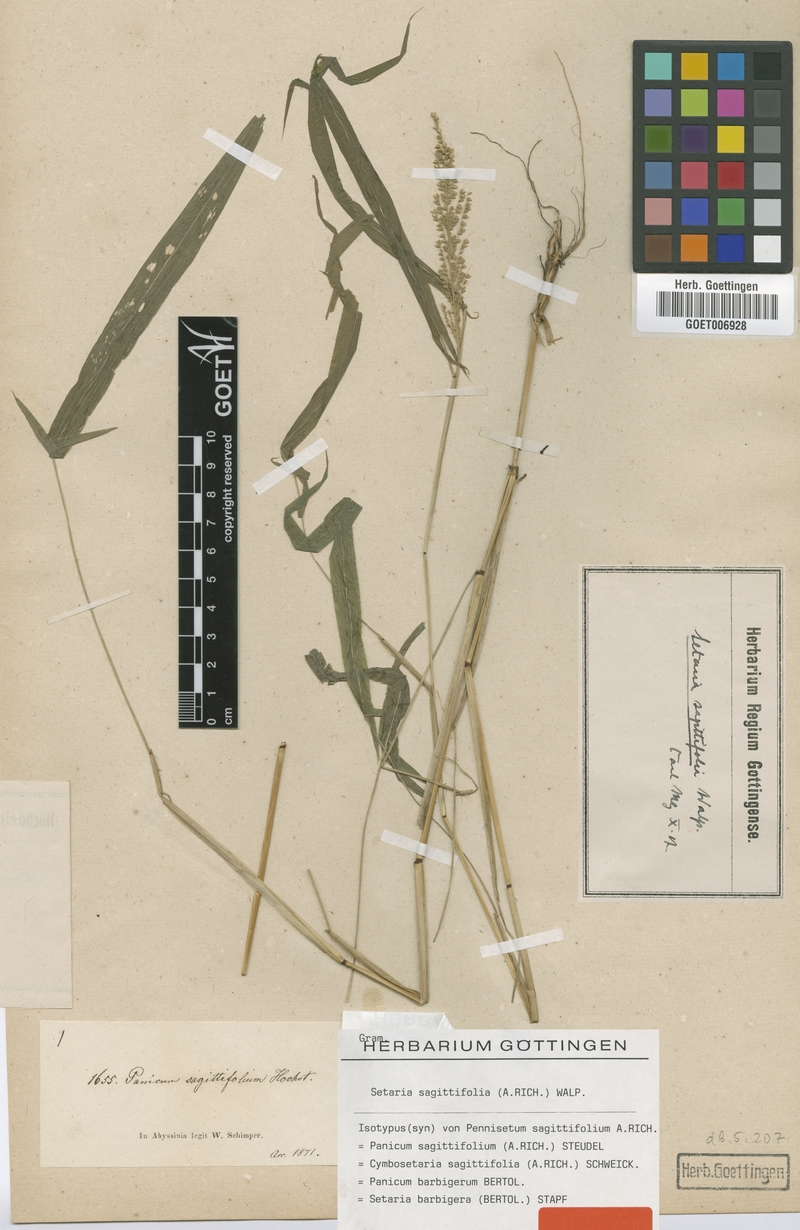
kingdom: Plantae
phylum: Tracheophyta
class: Liliopsida
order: Poales
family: Poaceae
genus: Setaria
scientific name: Setaria sagittifolia
